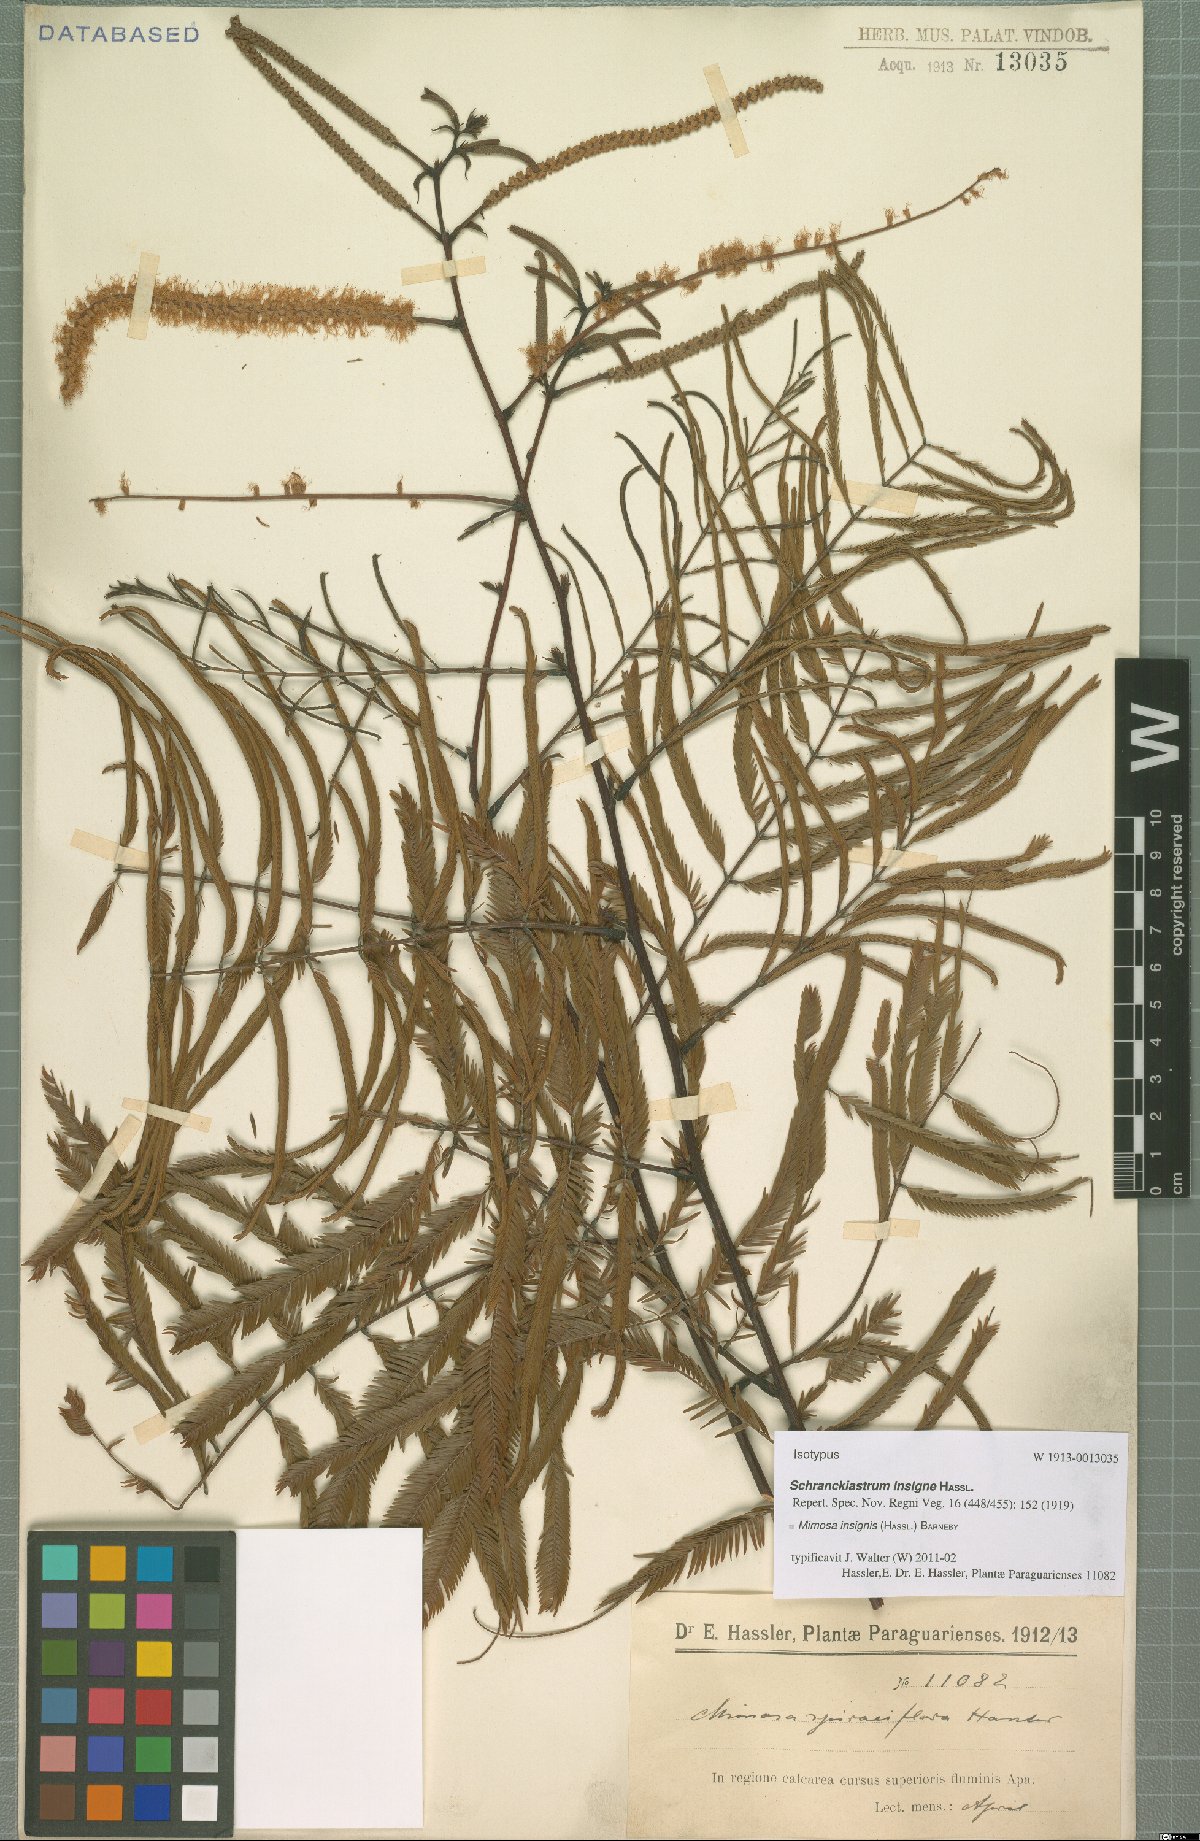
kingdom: Plantae
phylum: Tracheophyta
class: Magnoliopsida
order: Fabales
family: Fabaceae
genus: Mimosa
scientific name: Mimosa insignis
